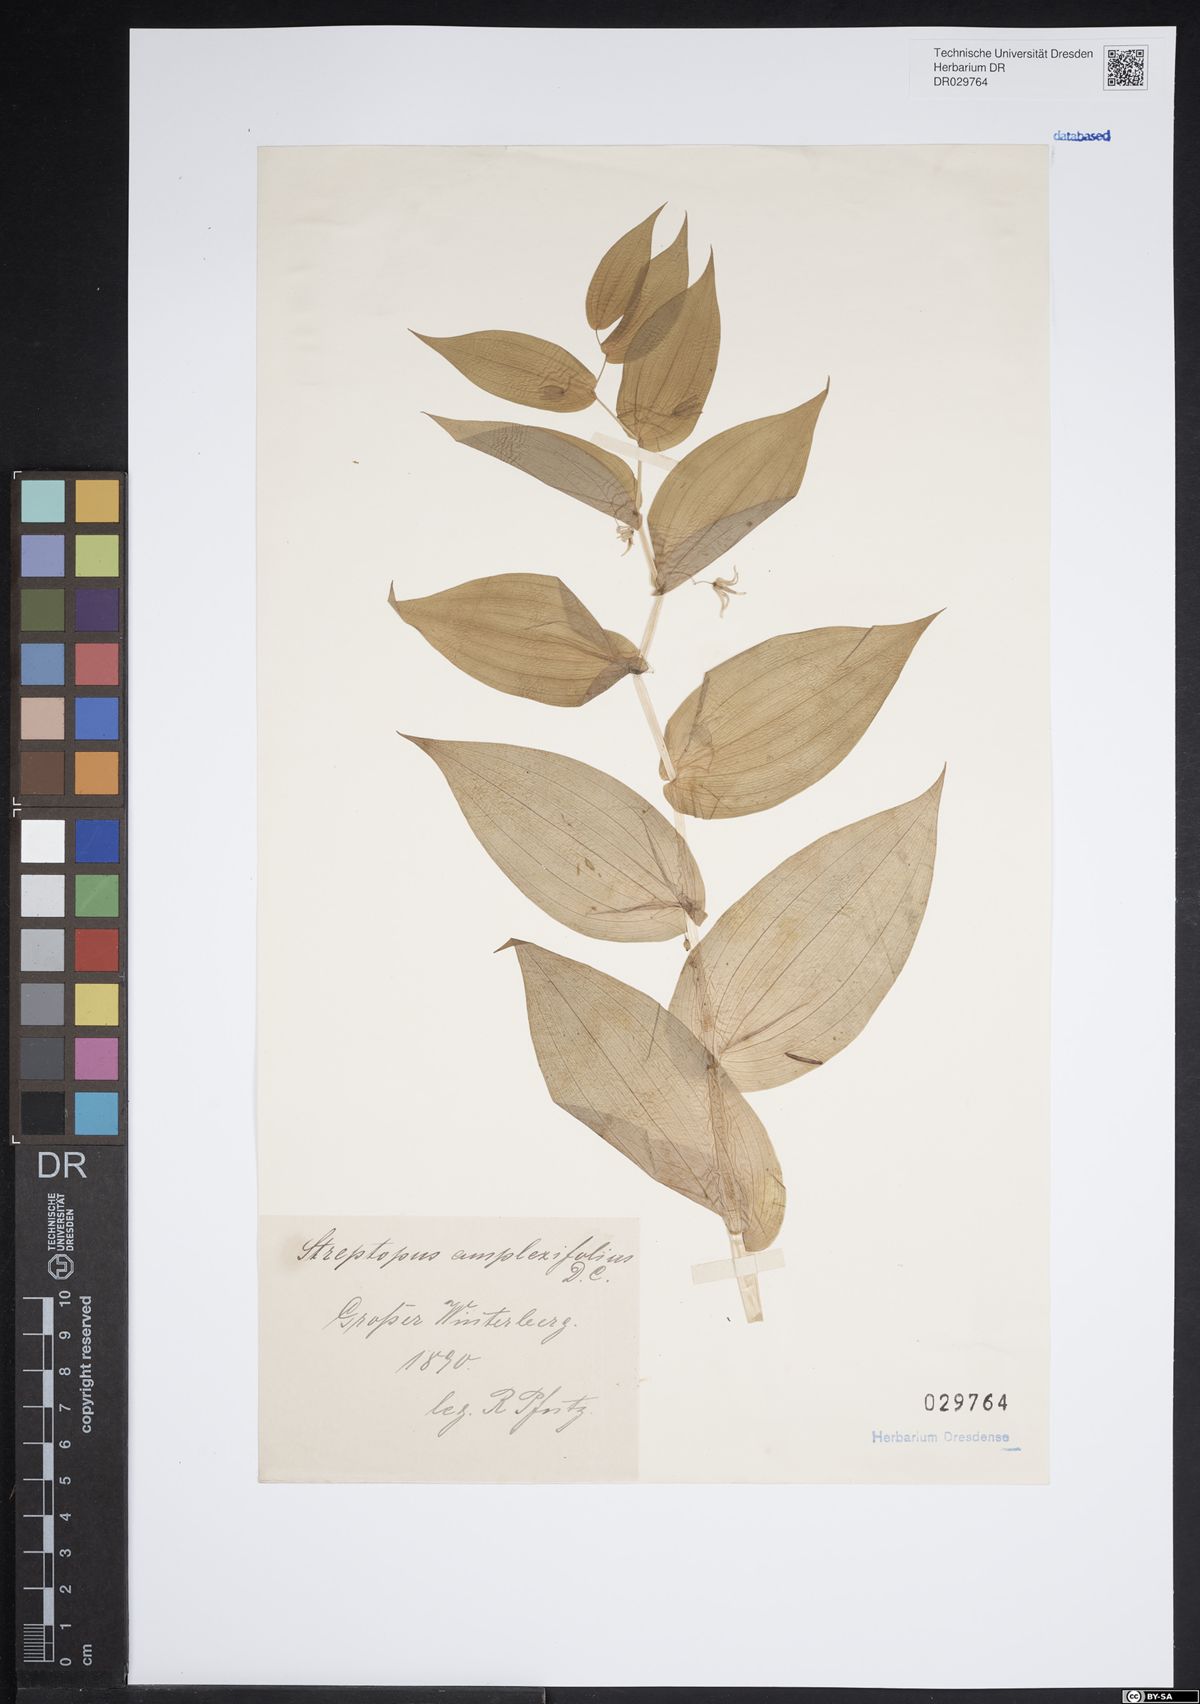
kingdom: Plantae
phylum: Tracheophyta
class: Liliopsida
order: Liliales
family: Liliaceae
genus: Streptopus
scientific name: Streptopus amplexifolius
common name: Clasp twisted stalk
